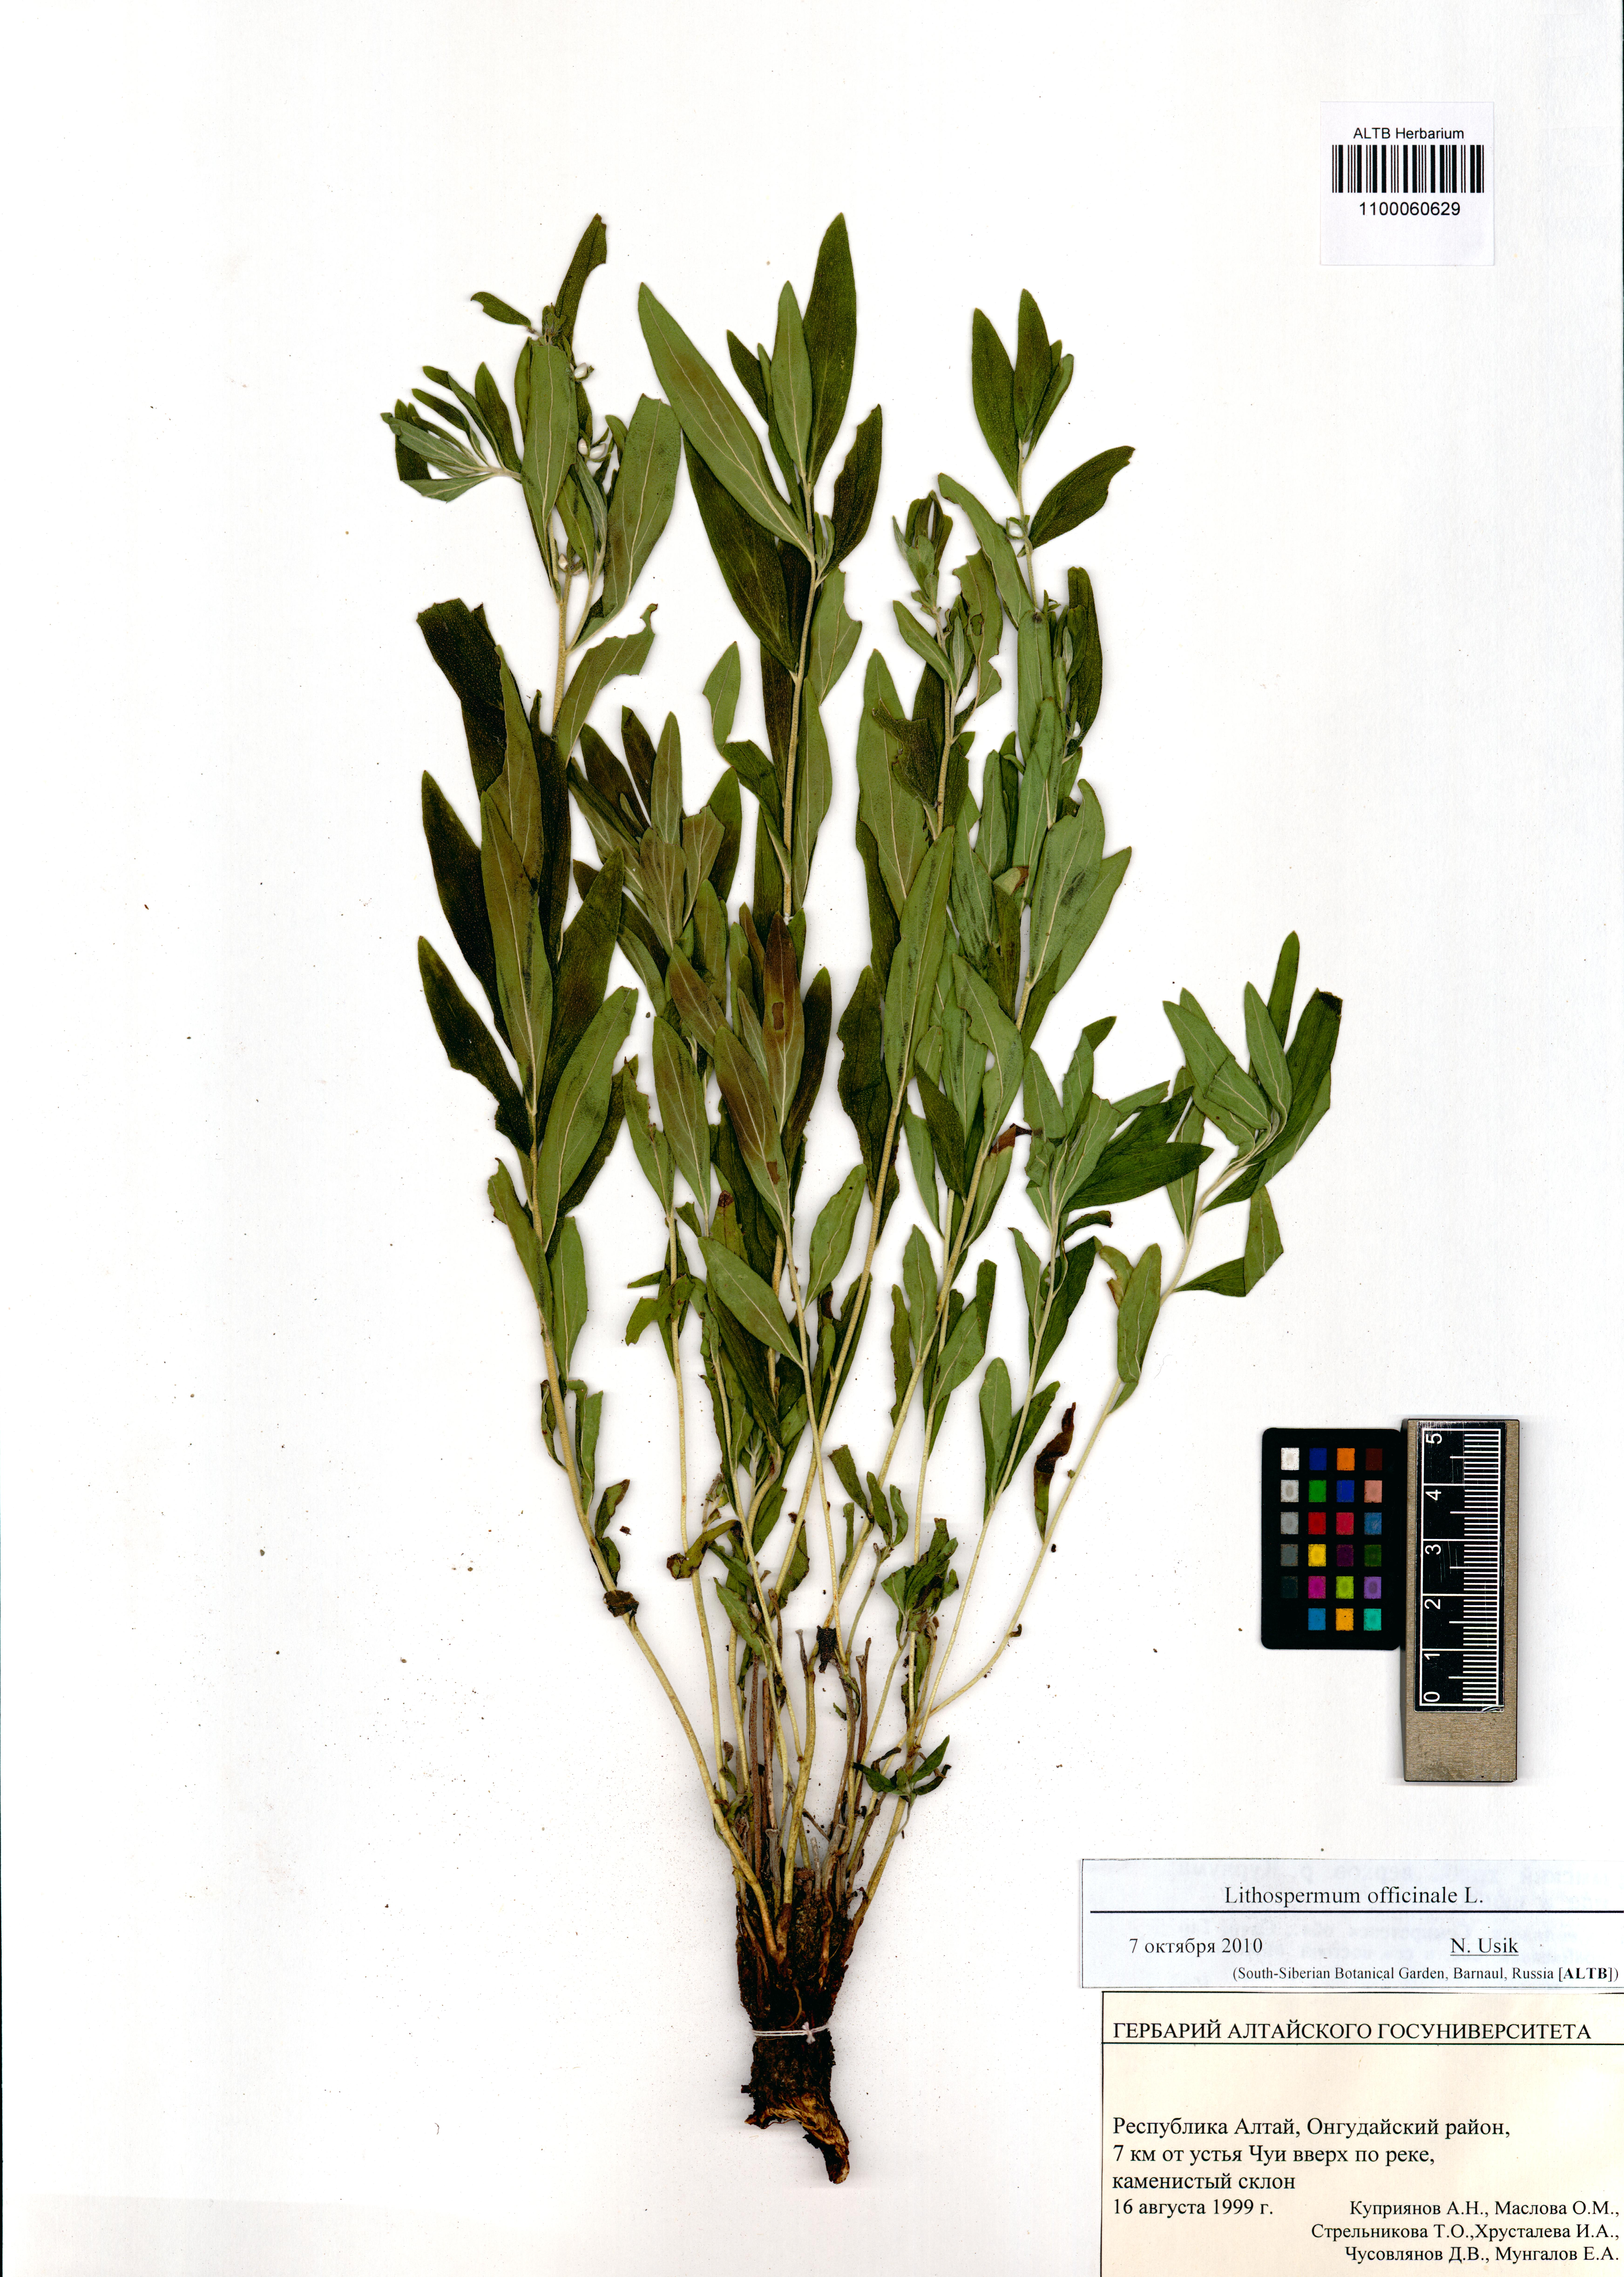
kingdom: Plantae
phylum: Tracheophyta
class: Magnoliopsida
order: Boraginales
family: Boraginaceae
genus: Lithospermum
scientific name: Lithospermum officinale
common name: Common gromwell
